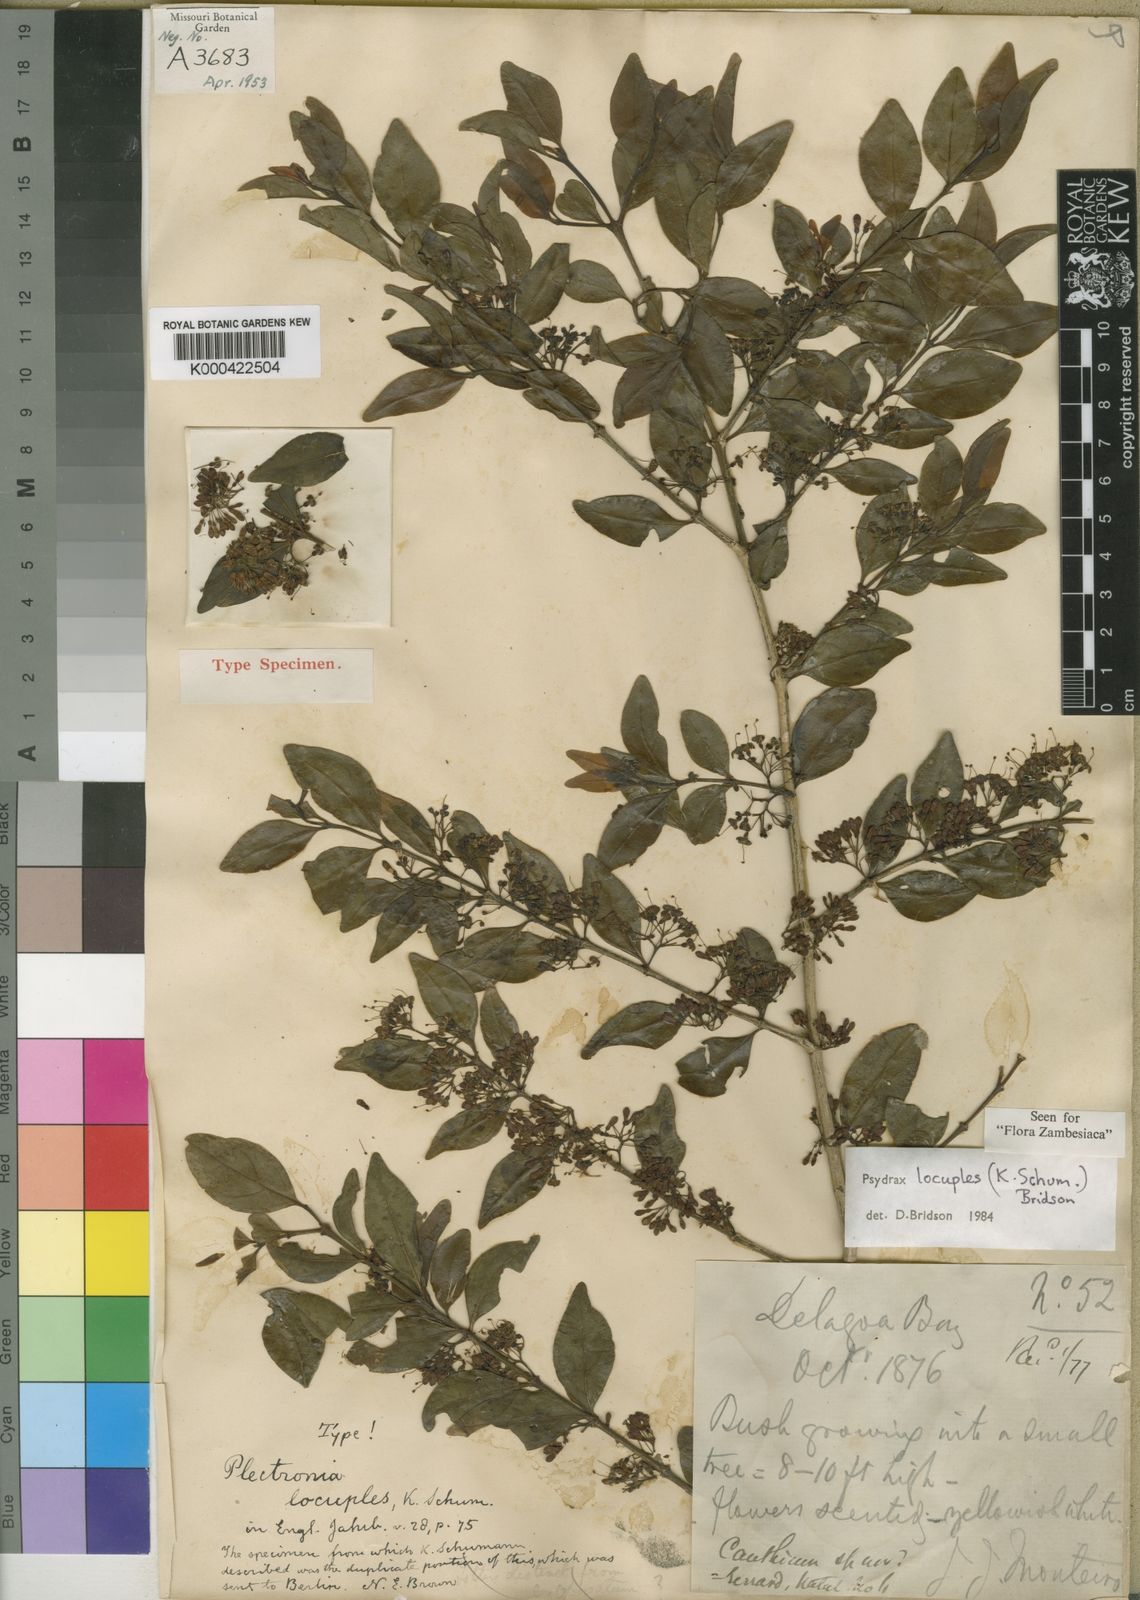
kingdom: Plantae
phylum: Tracheophyta
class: Magnoliopsida
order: Gentianales
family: Rubiaceae
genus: Psydrax
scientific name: Psydrax locuples
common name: Sand quar
